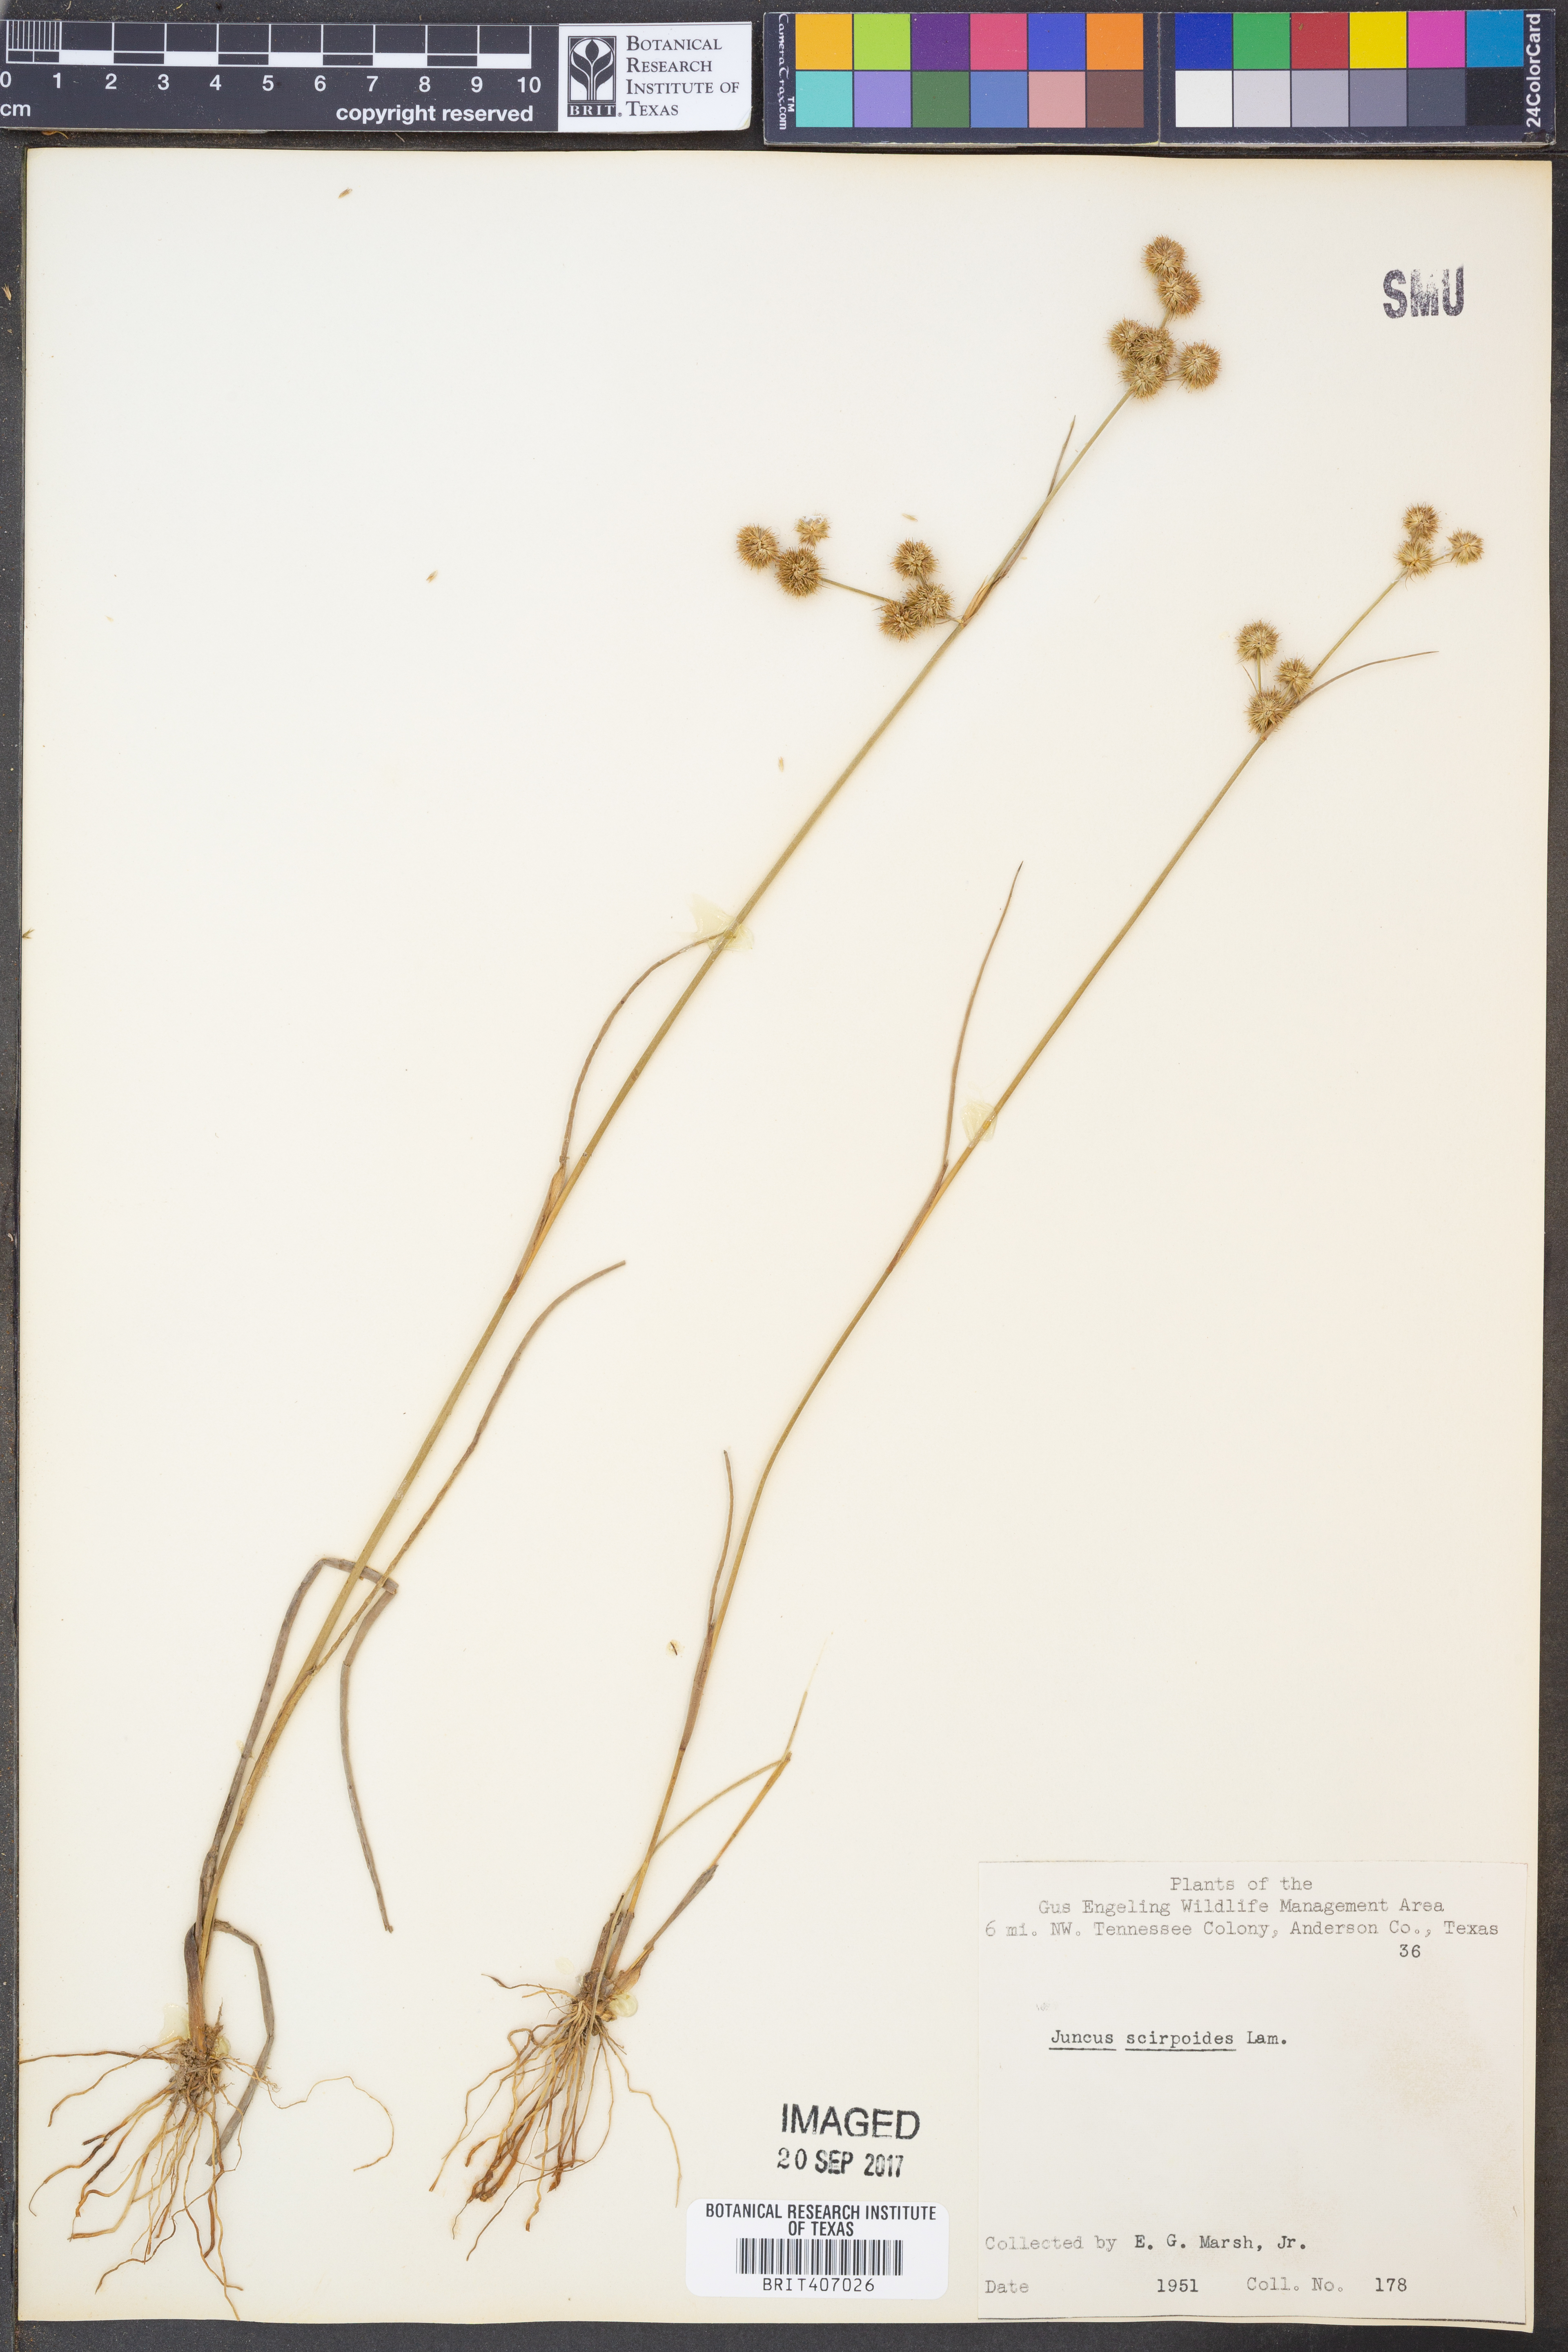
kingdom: Plantae
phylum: Tracheophyta
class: Liliopsida
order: Poales
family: Juncaceae
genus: Juncus
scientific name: Juncus scirpoides
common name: Needlepod rush
